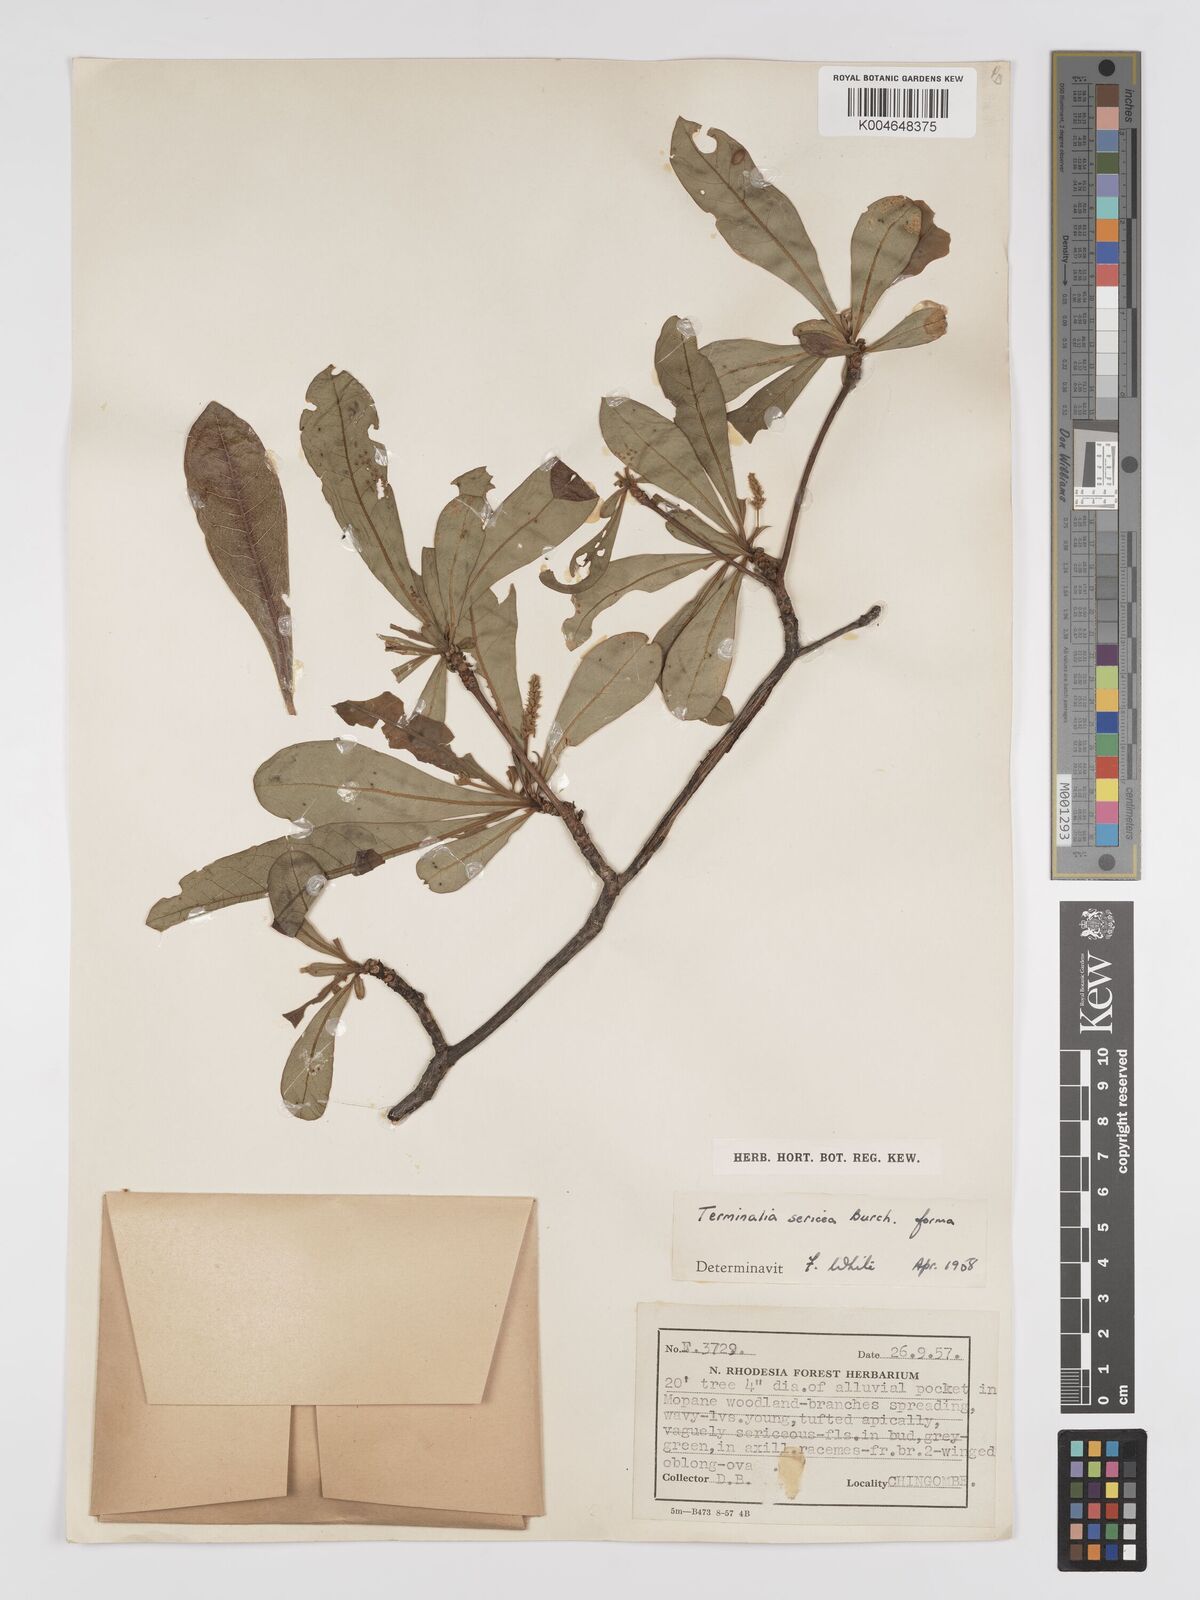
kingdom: Plantae
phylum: Tracheophyta
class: Magnoliopsida
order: Myrtales
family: Combretaceae
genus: Terminalia
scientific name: Terminalia
